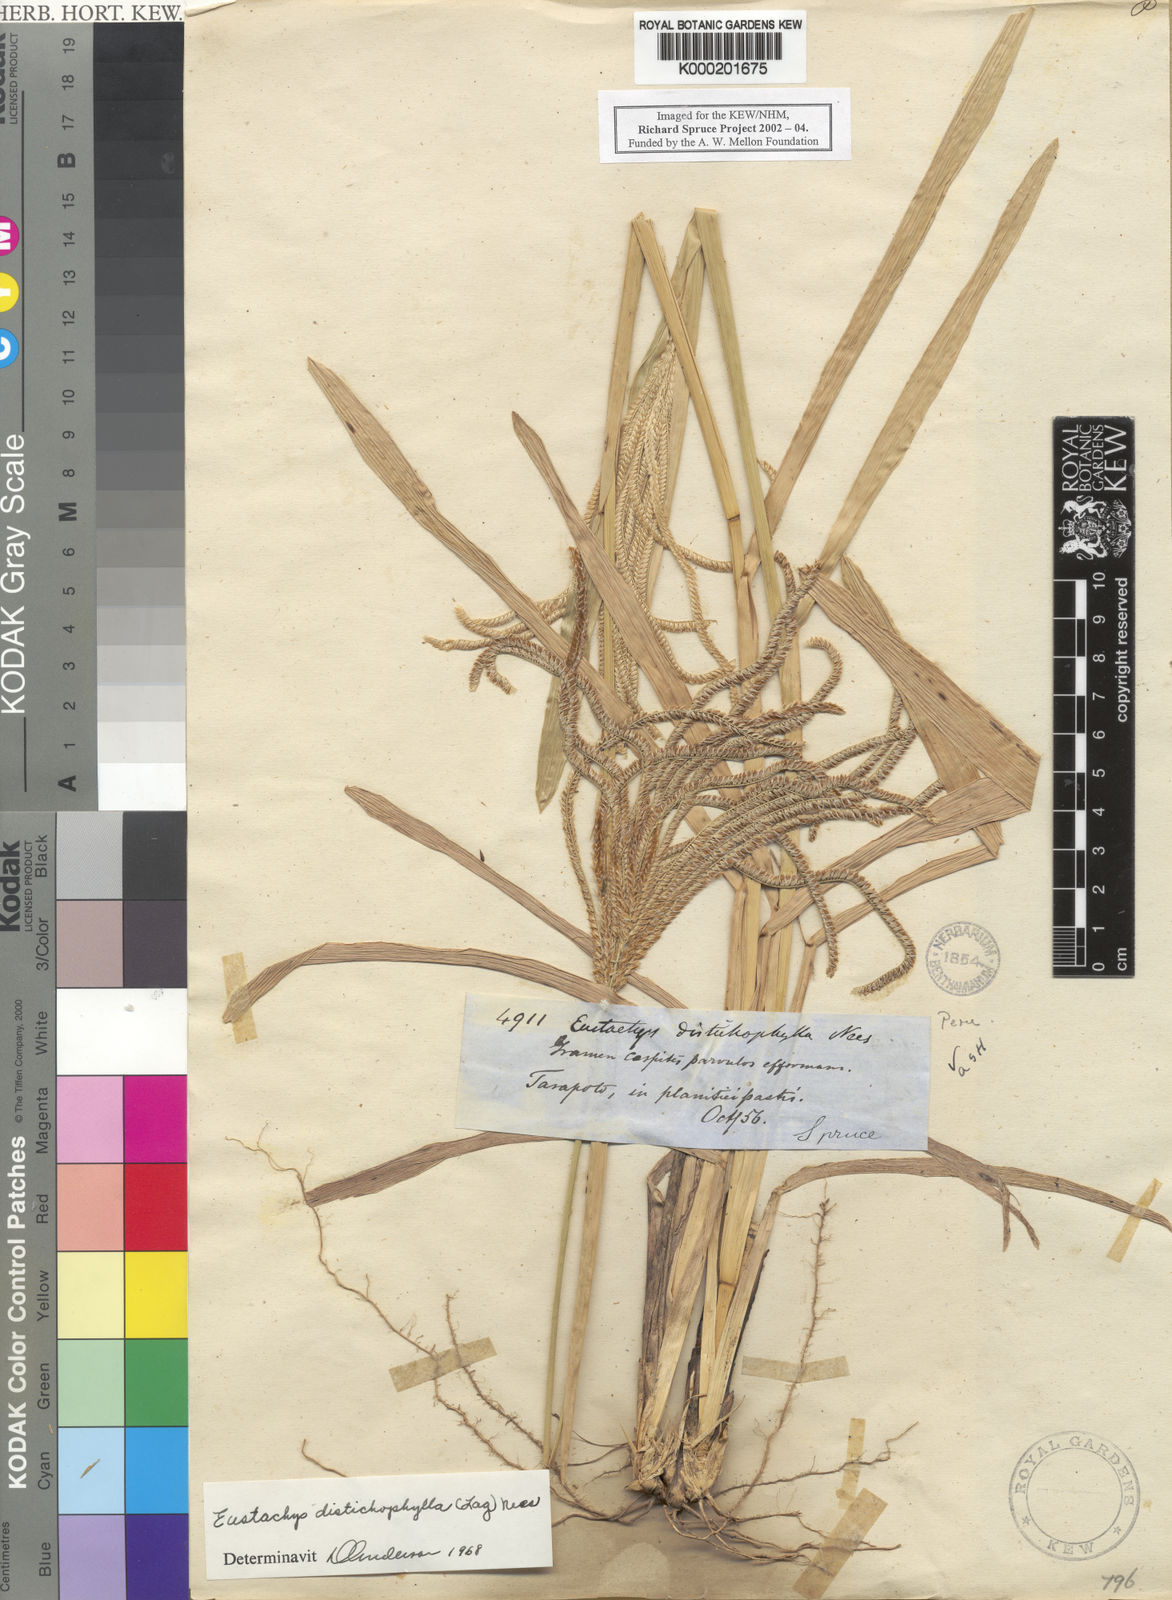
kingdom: Plantae
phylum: Tracheophyta
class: Liliopsida
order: Poales
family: Poaceae
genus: Eustachys
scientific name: Eustachys distichophylla
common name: Weeping fingergrass
